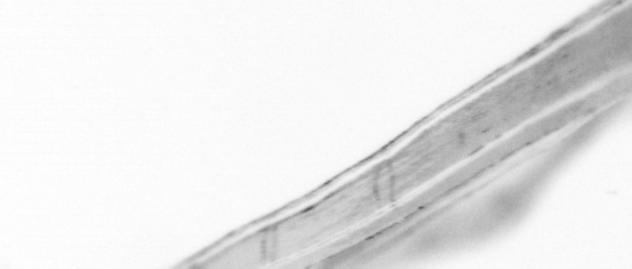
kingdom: Animalia
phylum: Chordata
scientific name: Chordata
